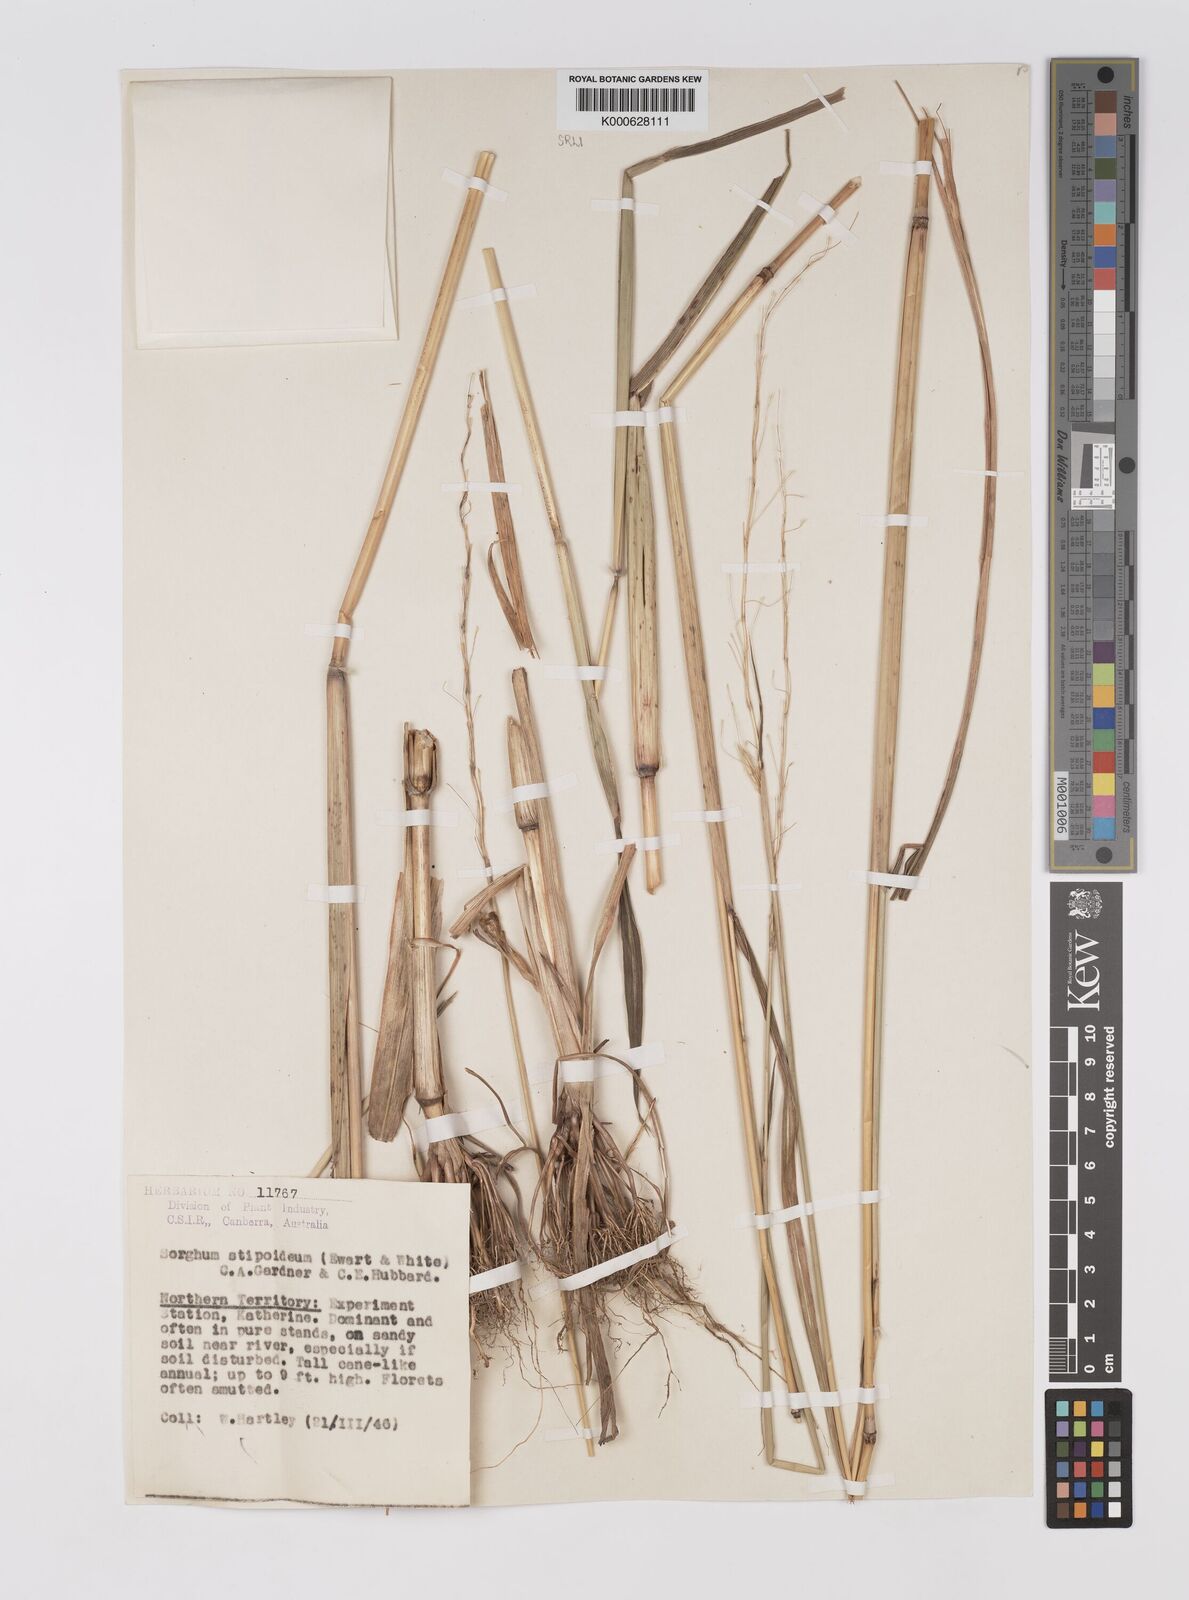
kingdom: Plantae
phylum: Tracheophyta
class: Liliopsida
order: Poales
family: Poaceae
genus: Sarga
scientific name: Sarga stipoidea
